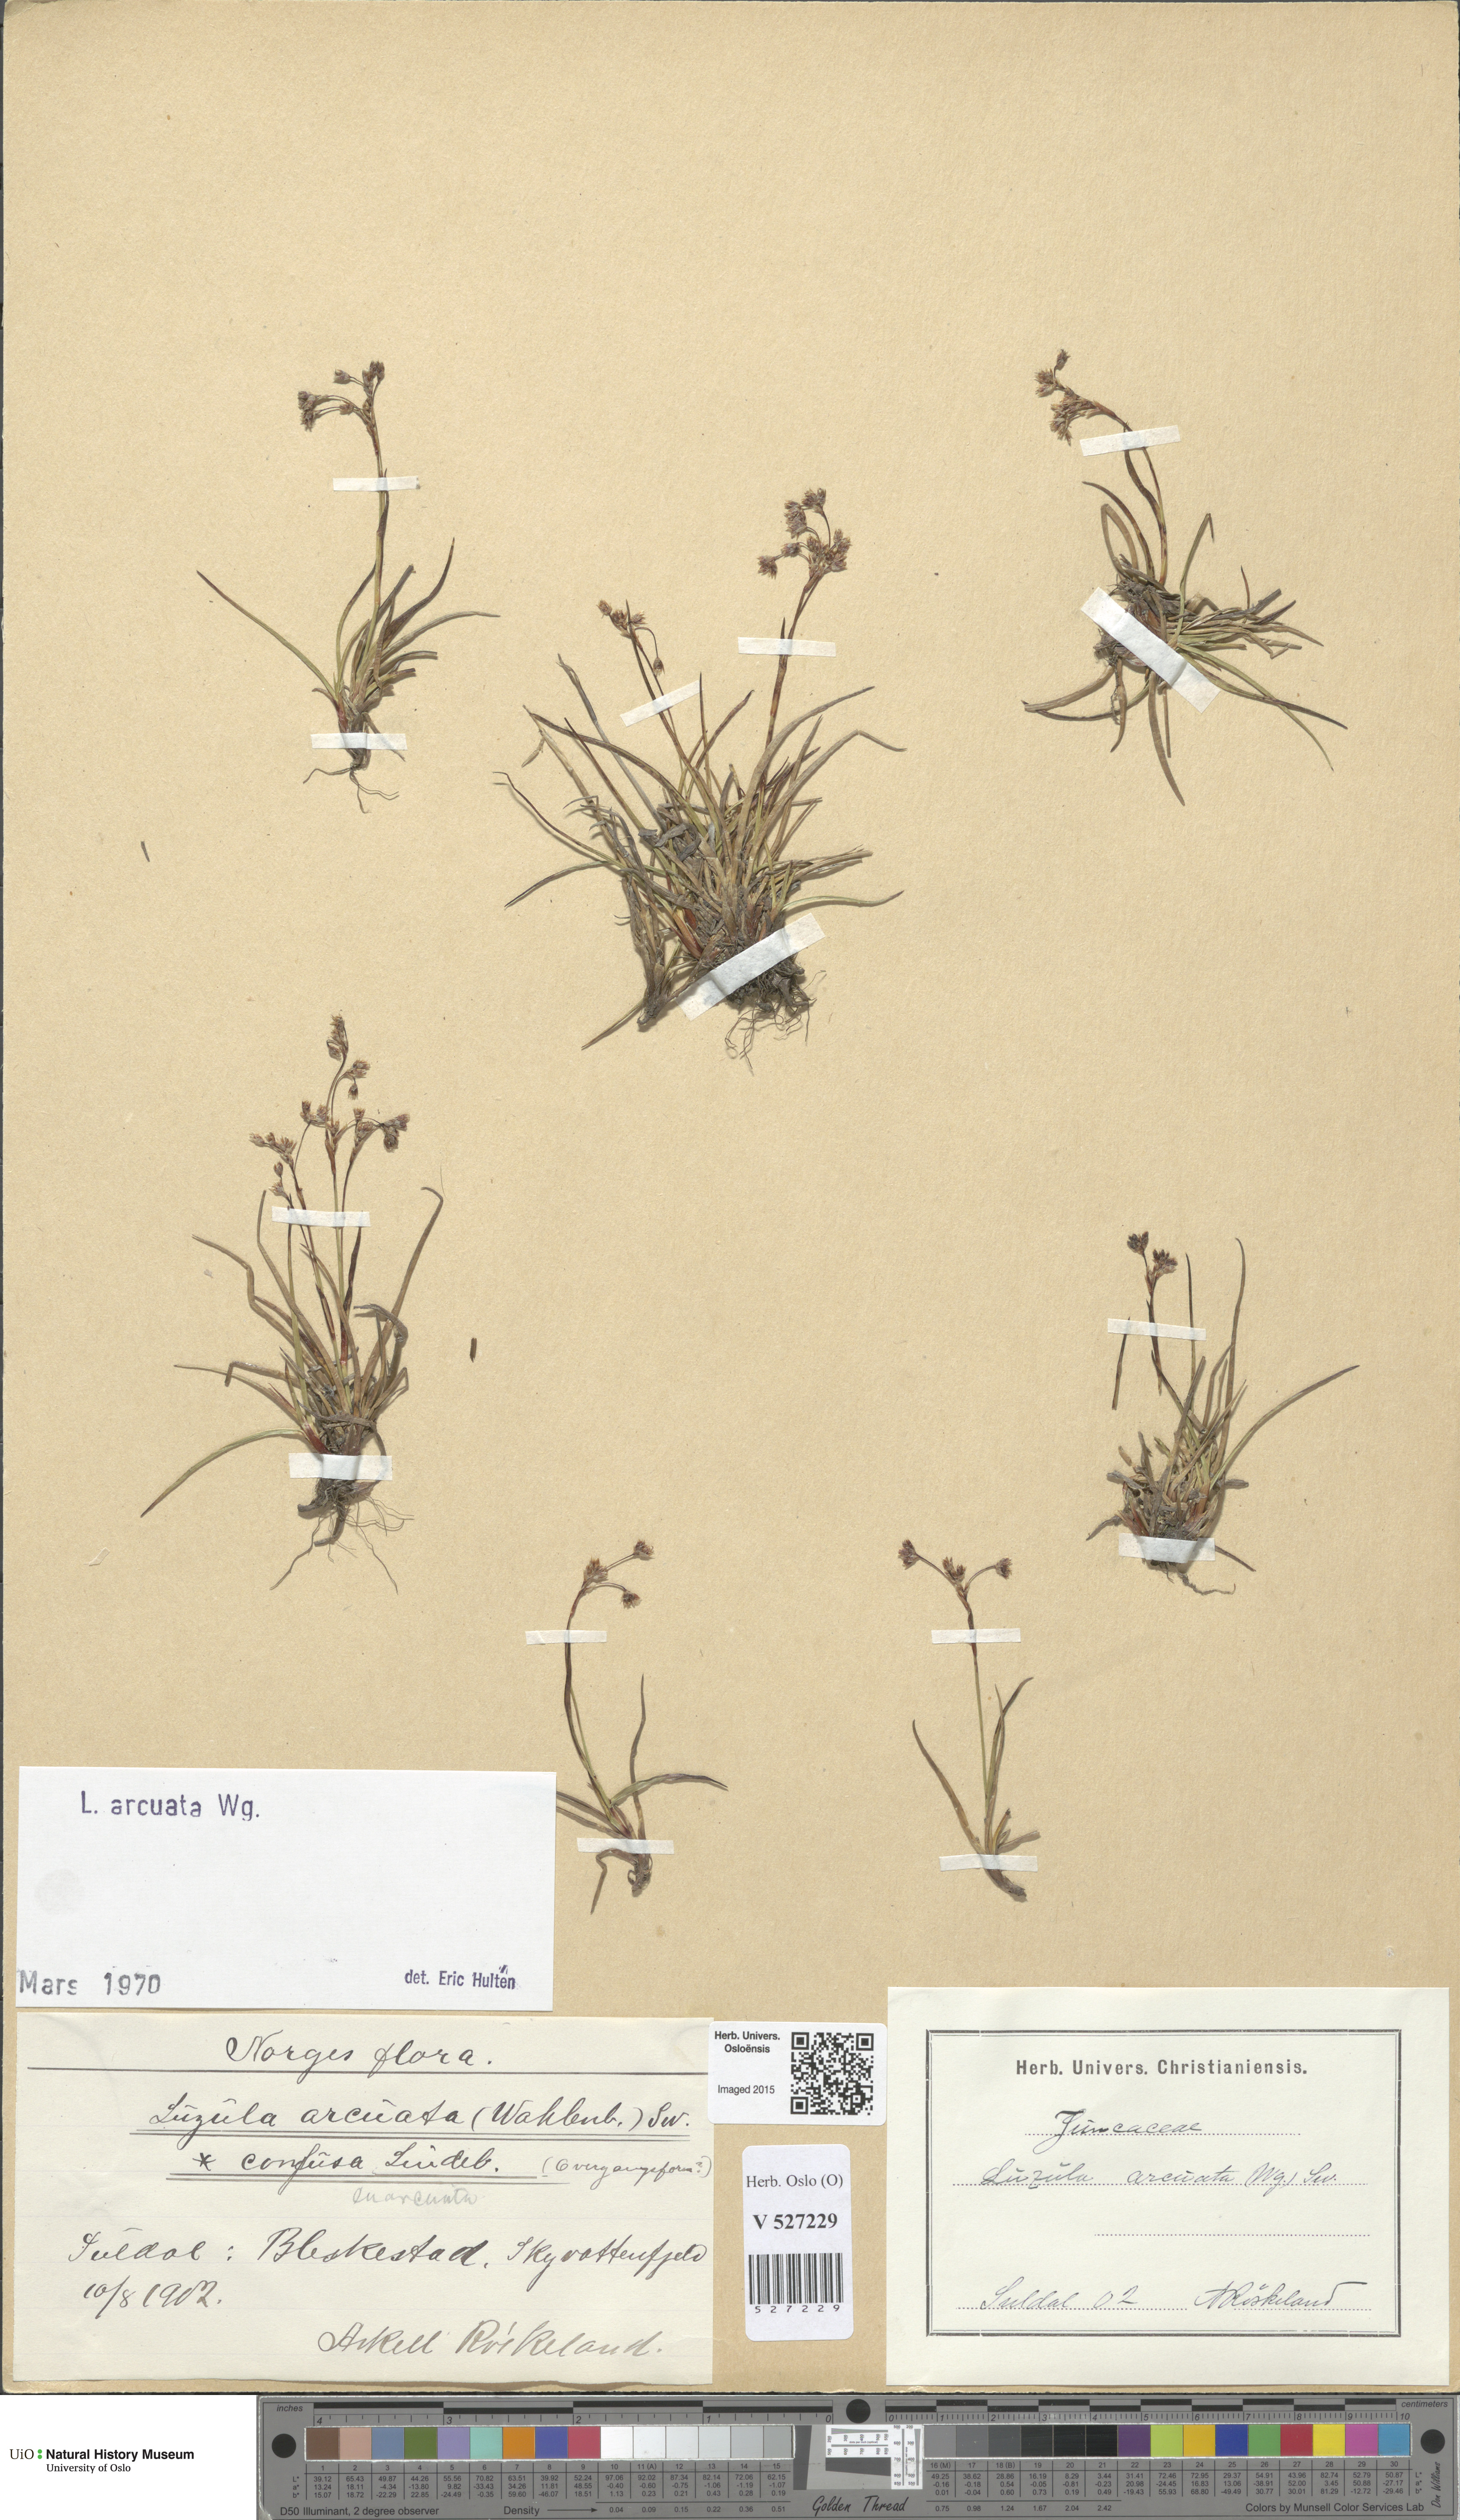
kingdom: Plantae
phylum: Tracheophyta
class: Liliopsida
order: Poales
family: Juncaceae
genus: Luzula
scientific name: Luzula arcuata
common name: Curved wood-rush
